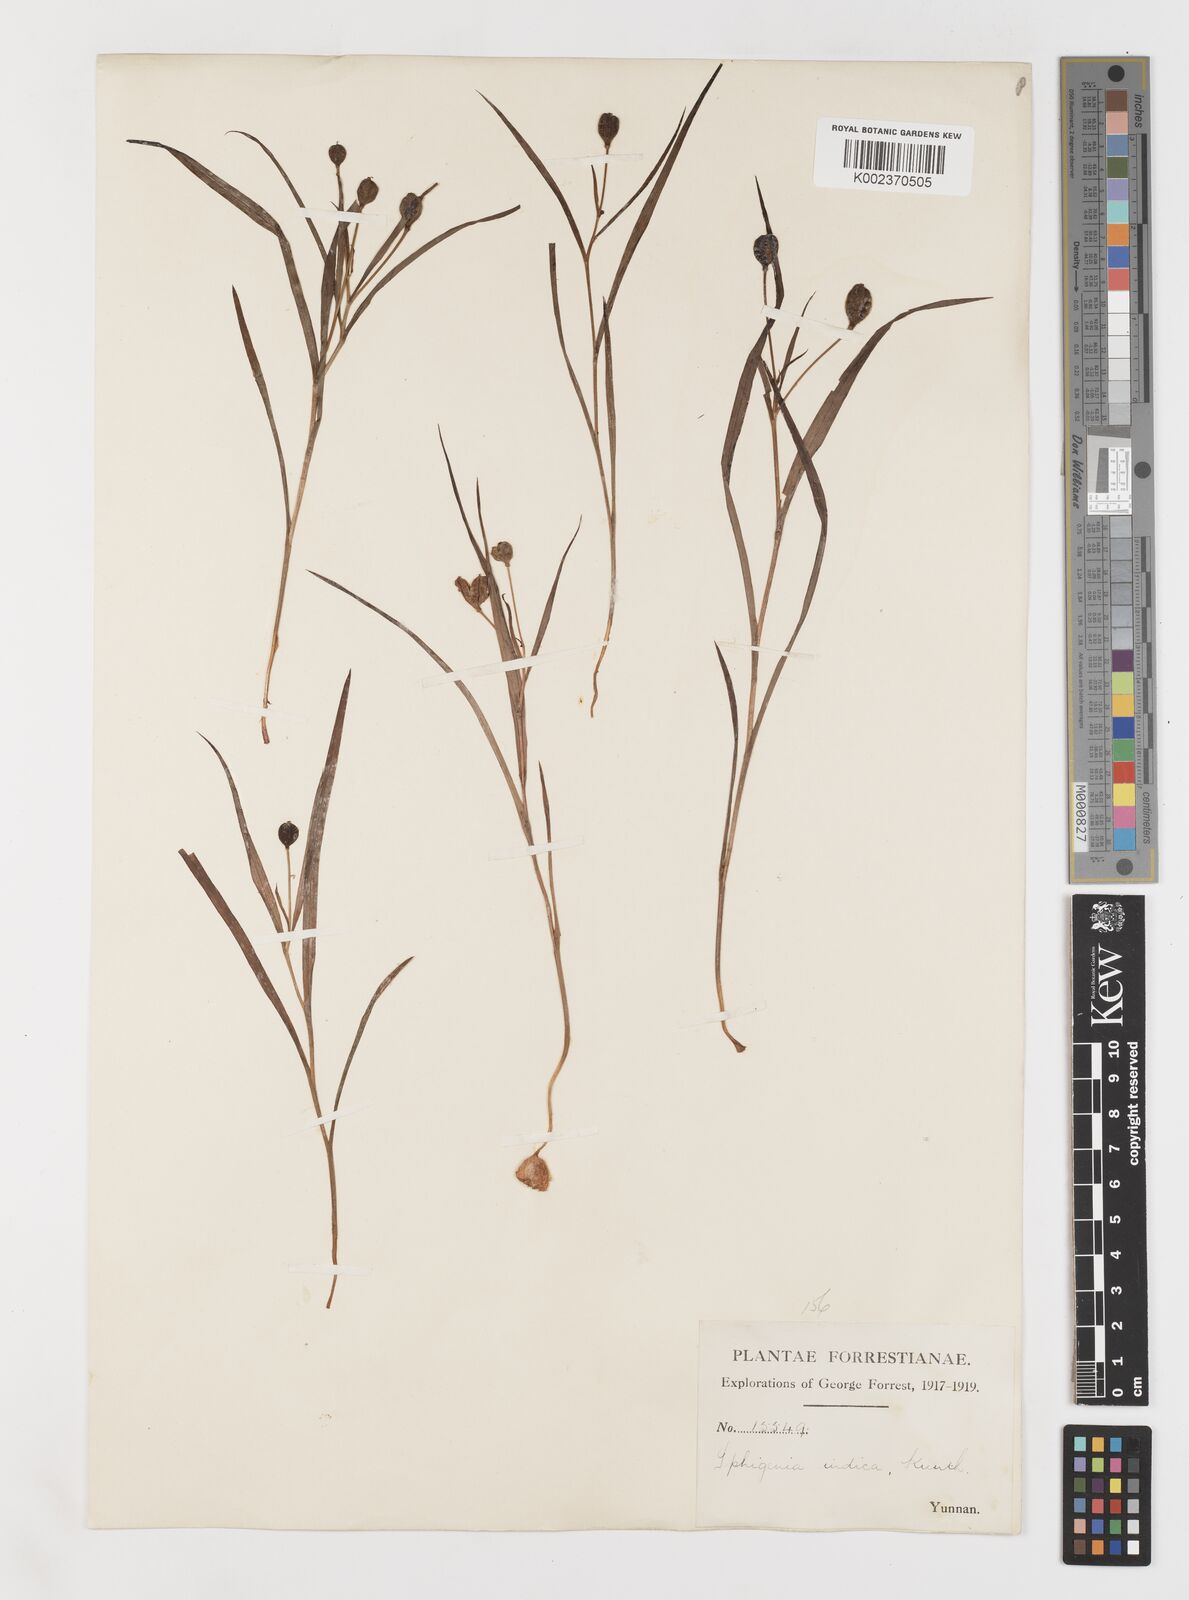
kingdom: Plantae
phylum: Tracheophyta
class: Liliopsida
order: Liliales
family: Colchicaceae
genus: Iphigenia
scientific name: Iphigenia indica
